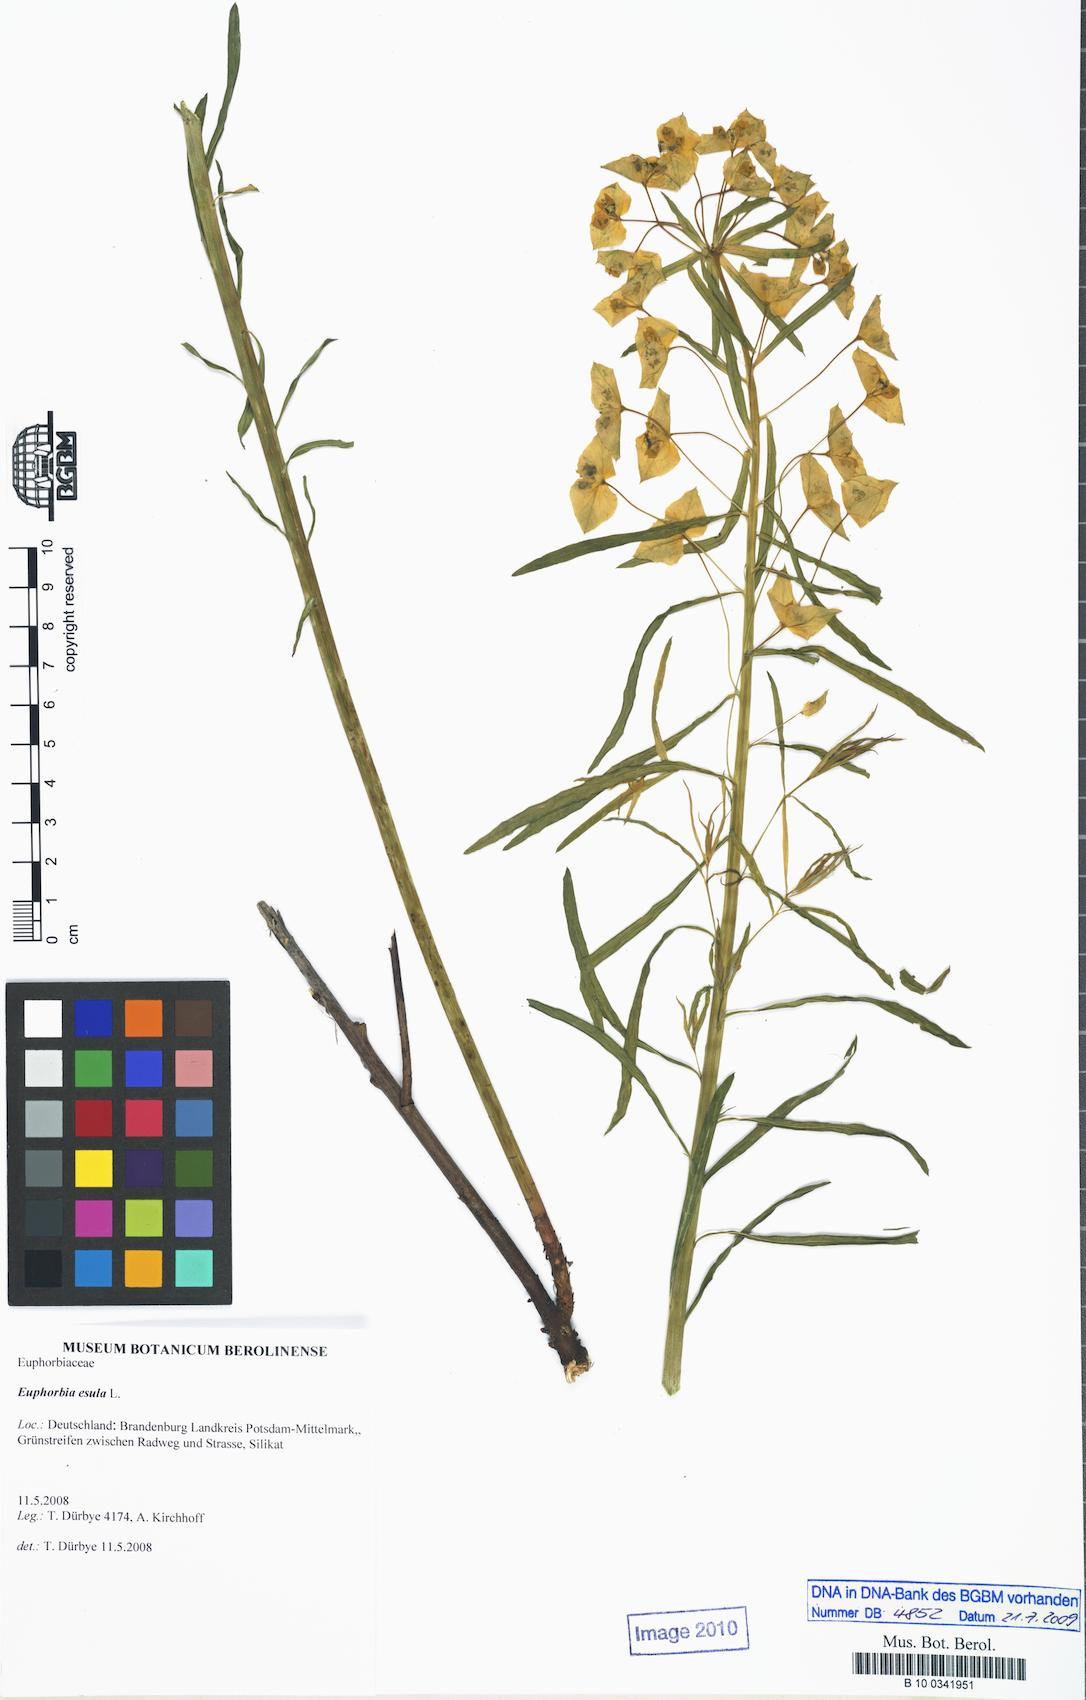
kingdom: Plantae
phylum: Tracheophyta
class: Magnoliopsida
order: Malpighiales
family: Euphorbiaceae
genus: Euphorbia
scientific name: Euphorbia saratoi
